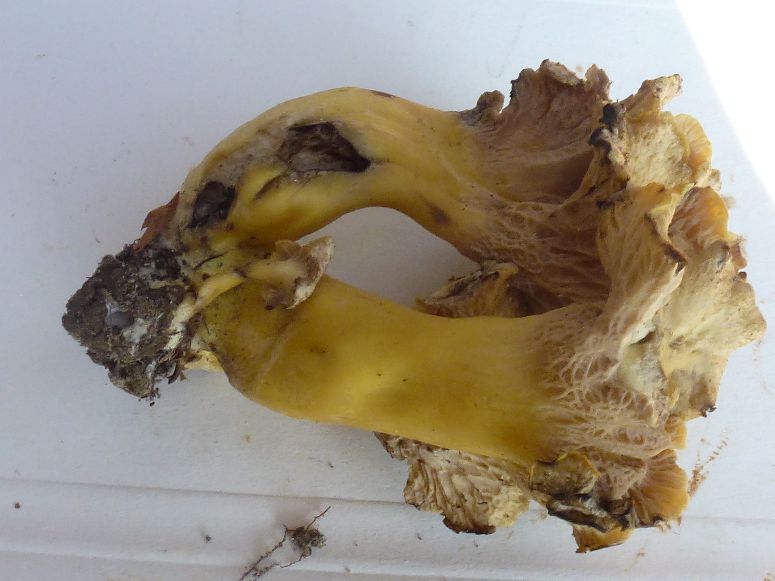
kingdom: Fungi
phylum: Basidiomycota
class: Agaricomycetes
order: Cantharellales
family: Hydnaceae
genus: Cantharellus
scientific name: Cantharellus melanoxeros
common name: sværtende kantarel
